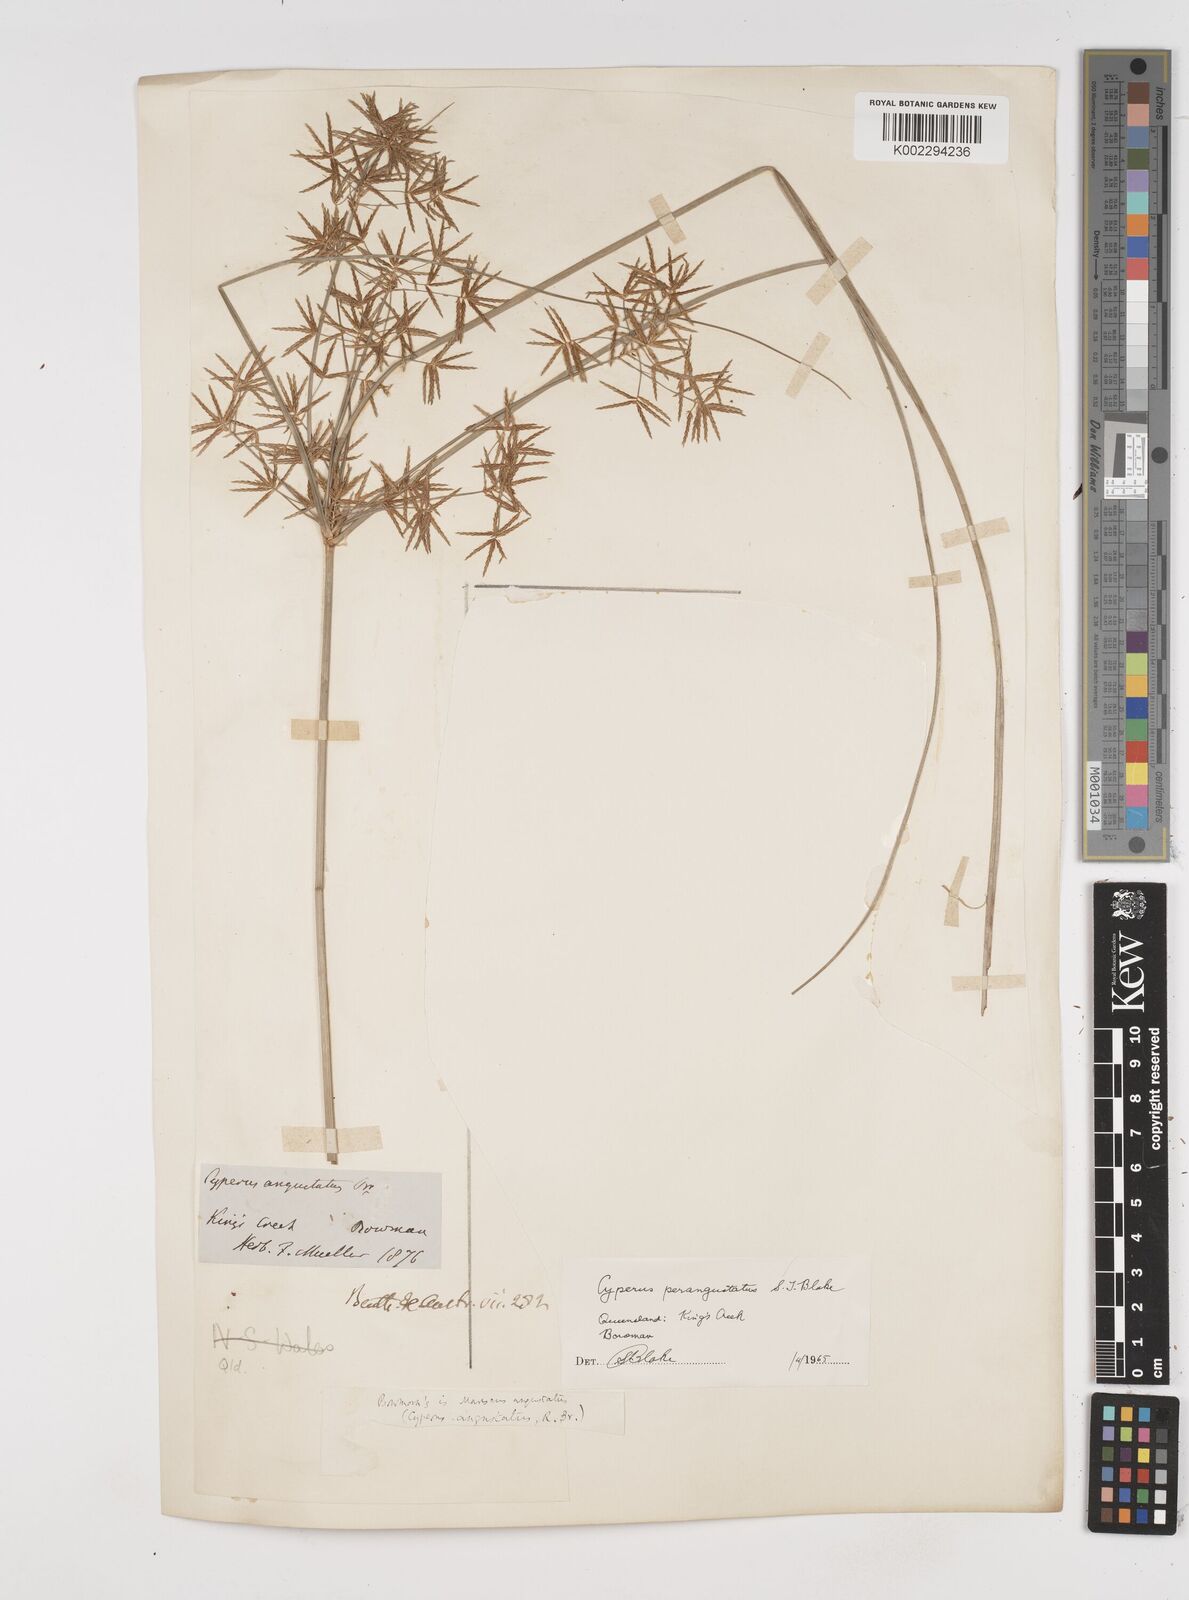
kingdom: Plantae
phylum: Tracheophyta
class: Liliopsida
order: Poales
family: Cyperaceae
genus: Cyperus
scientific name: Cyperus angustatus
